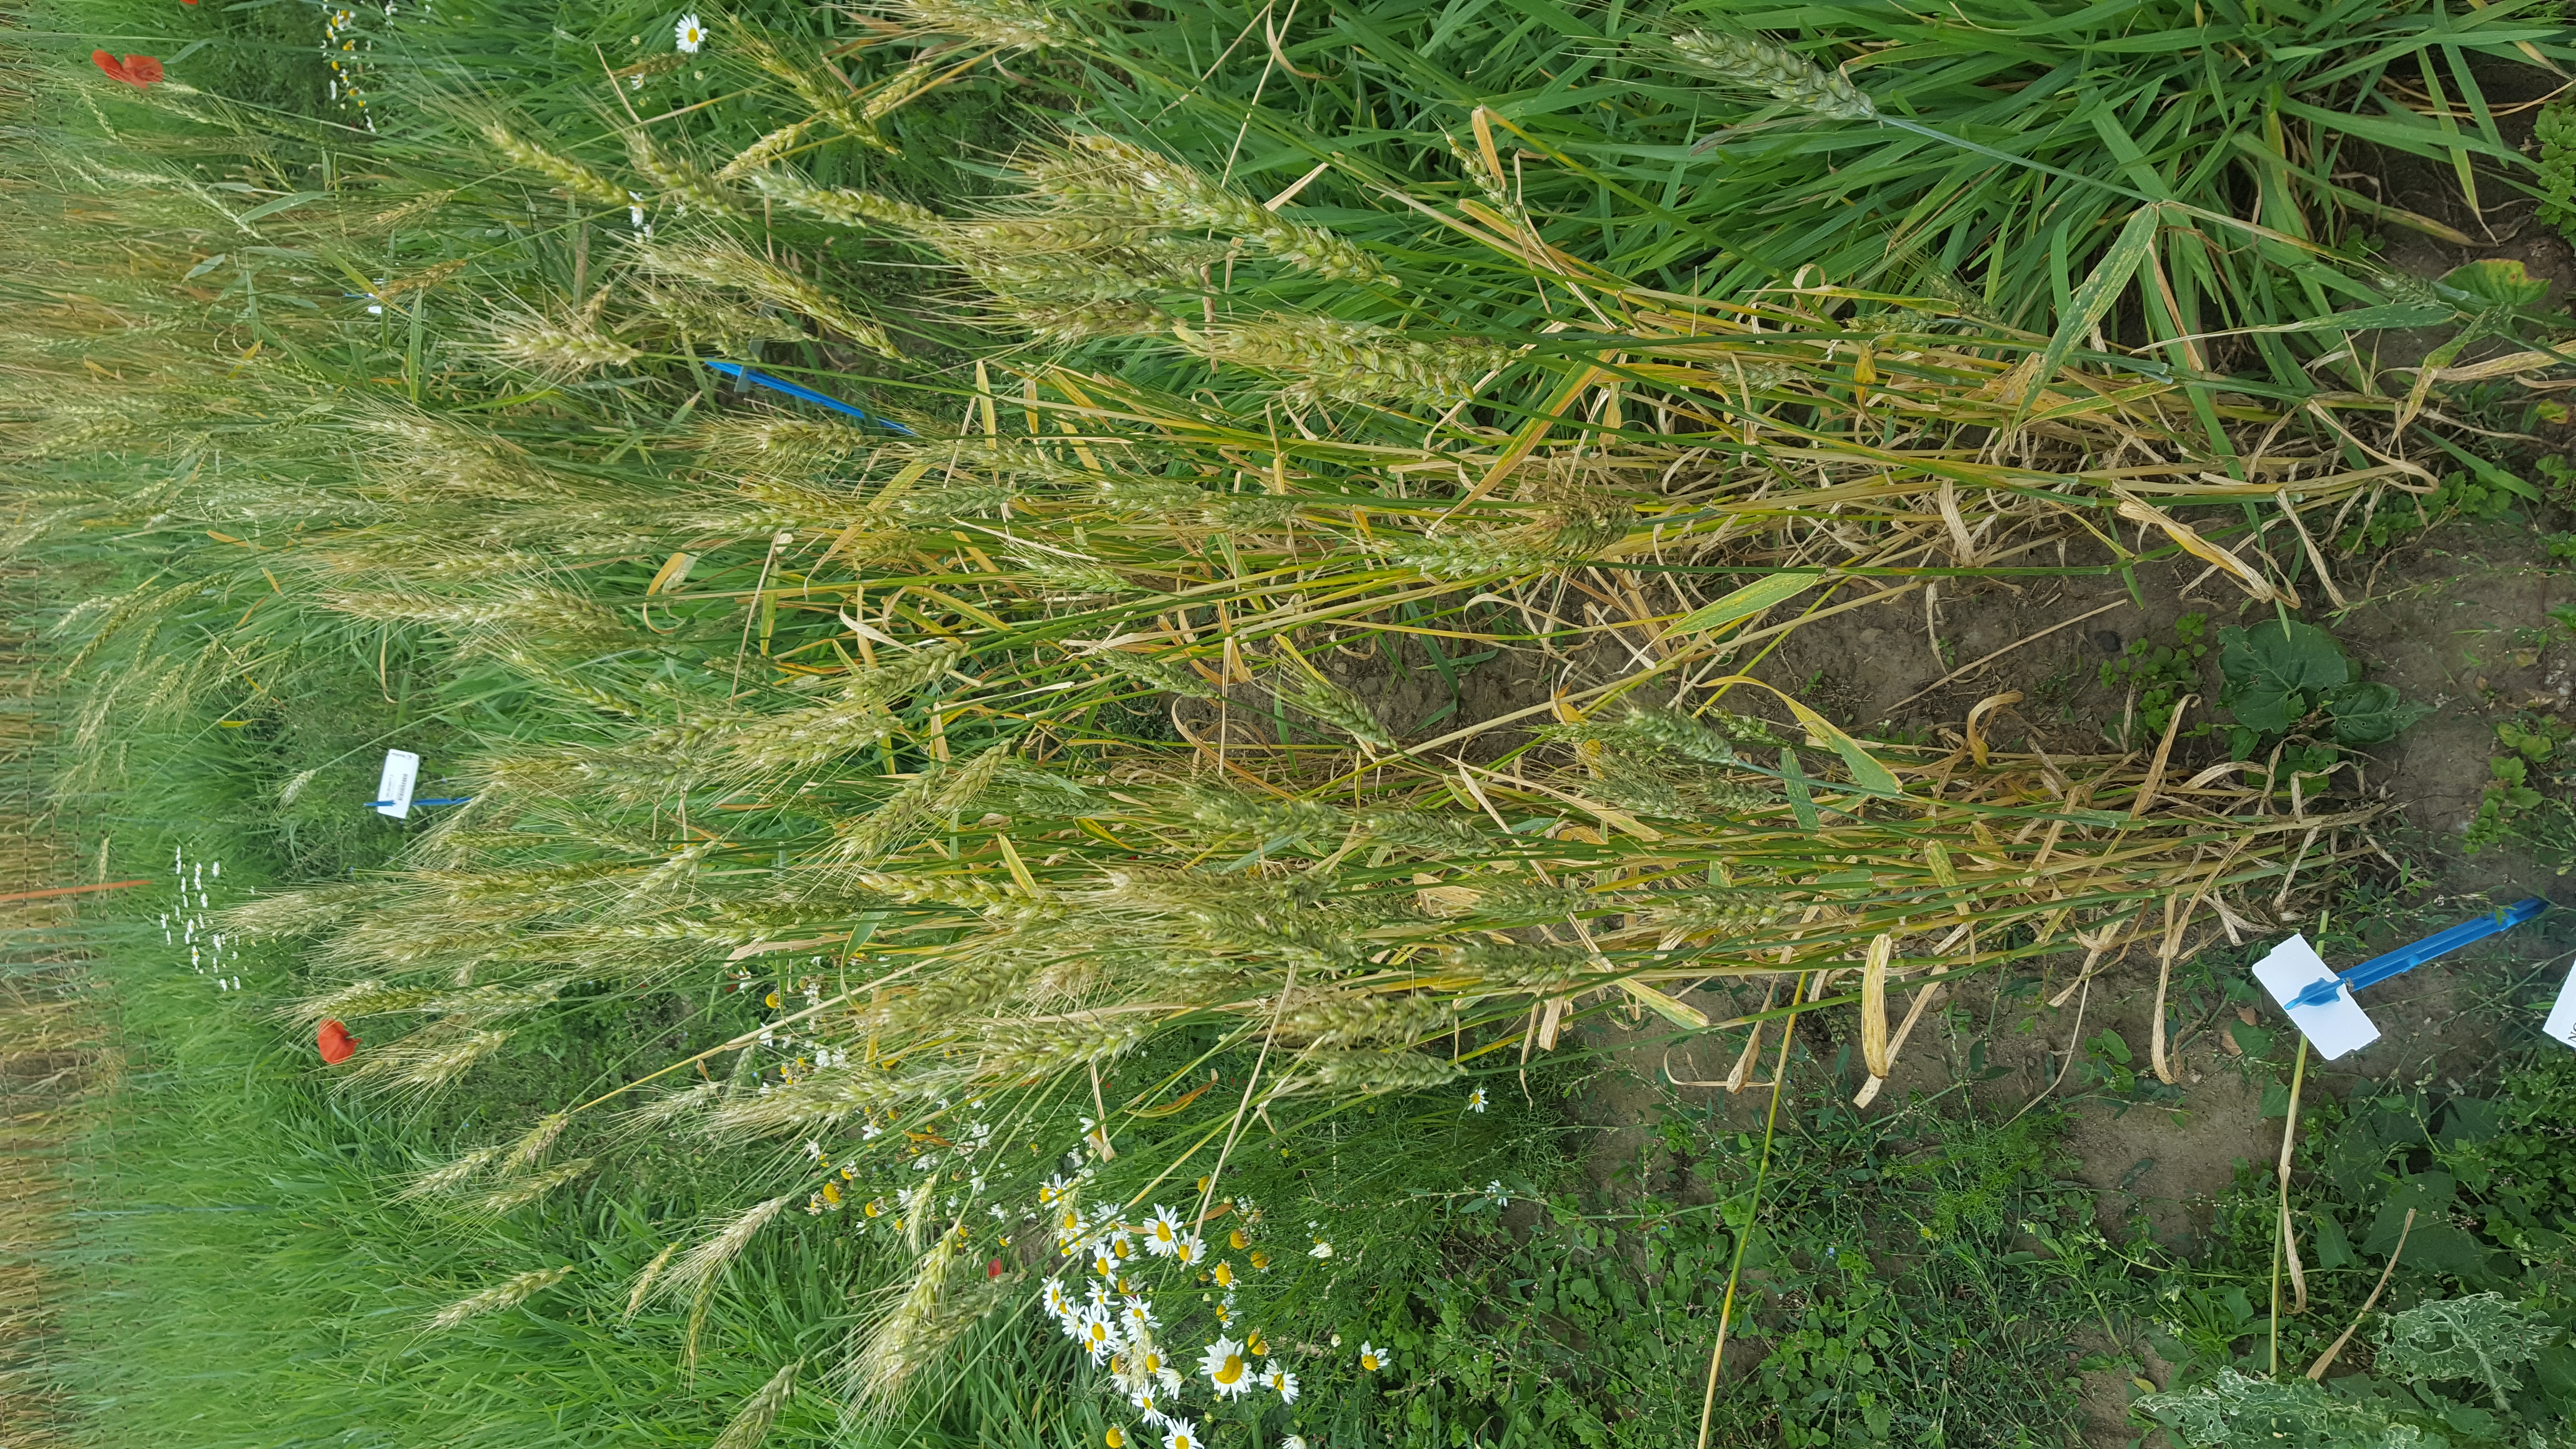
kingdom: Plantae
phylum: Tracheophyta
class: Liliopsida
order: Poales
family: Poaceae
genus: Triticum
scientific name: Triticum aestivum
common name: Common wheat
